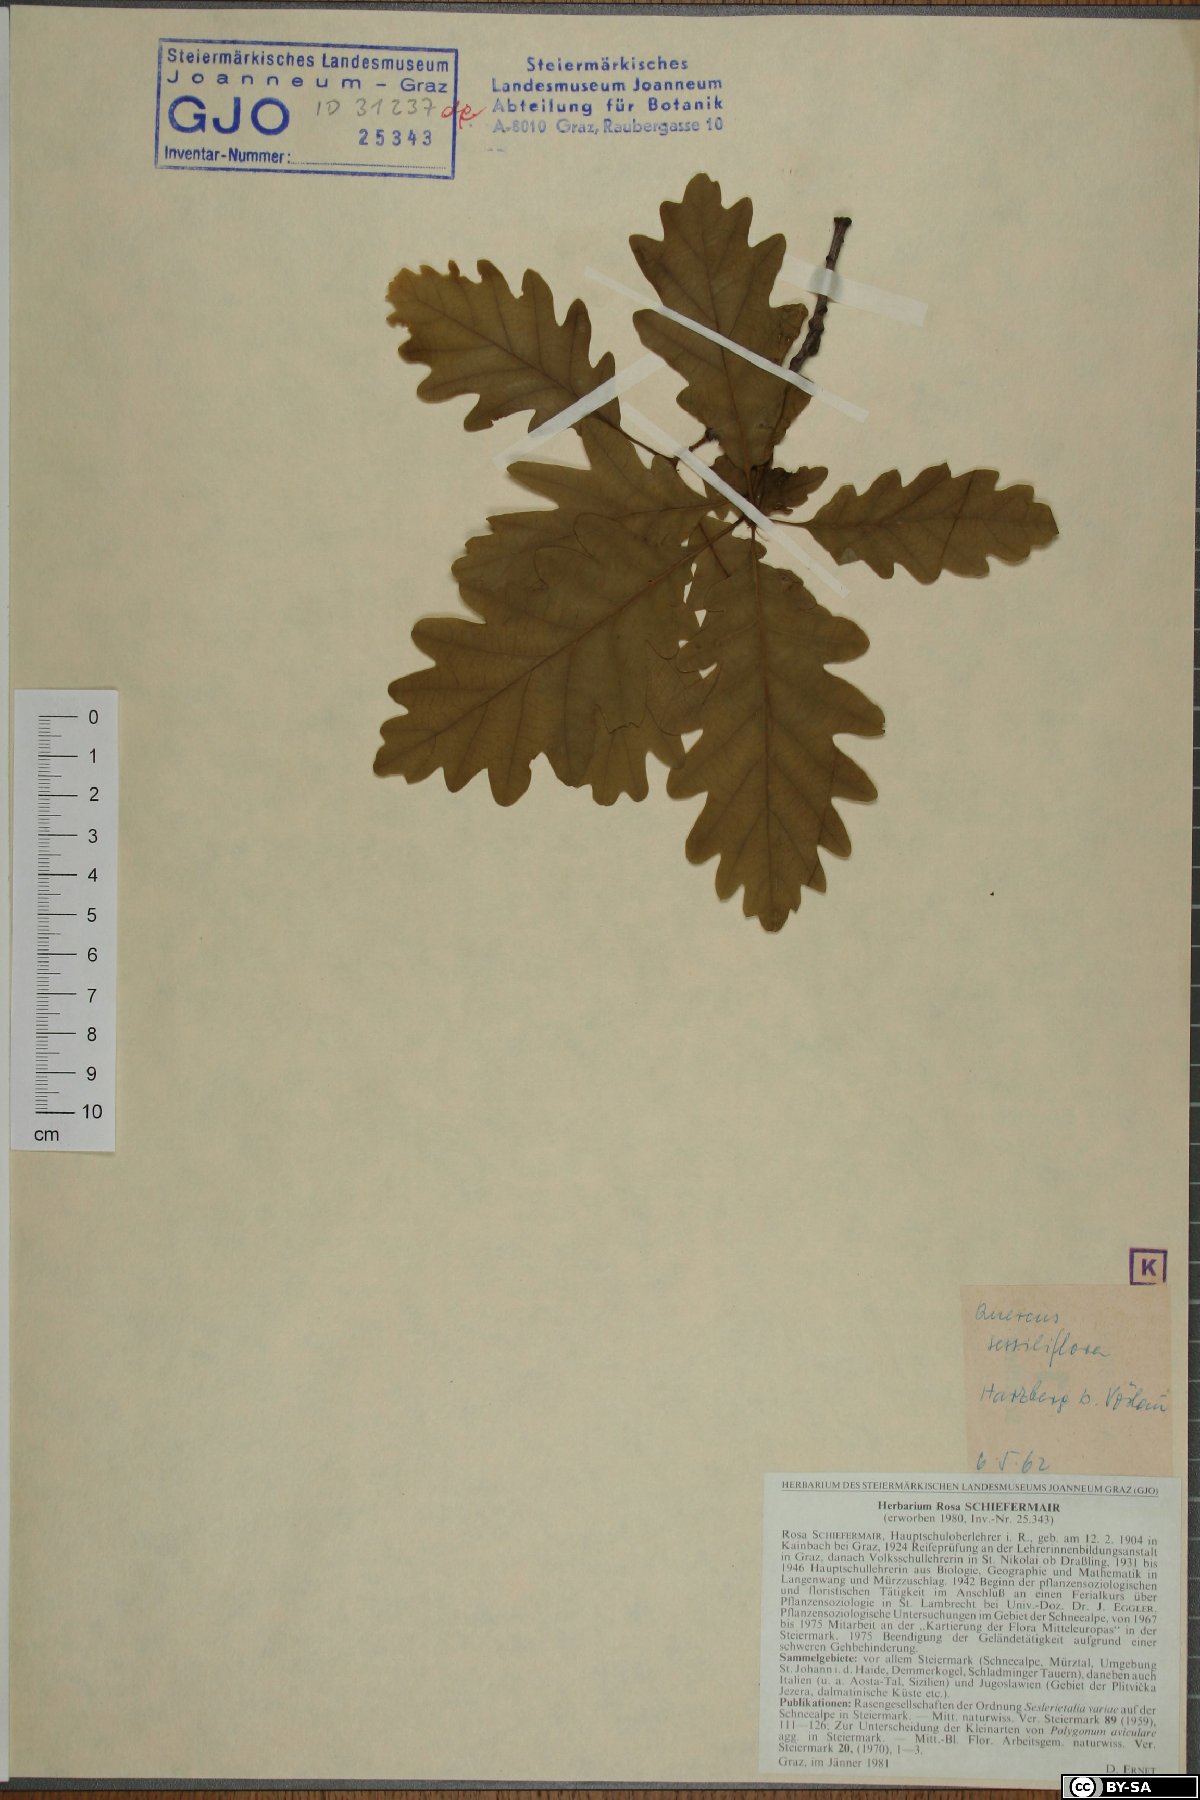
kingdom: Plantae
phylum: Tracheophyta
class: Magnoliopsida
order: Fagales
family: Fagaceae
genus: Quercus
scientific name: Quercus petraea
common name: Sessile oak
